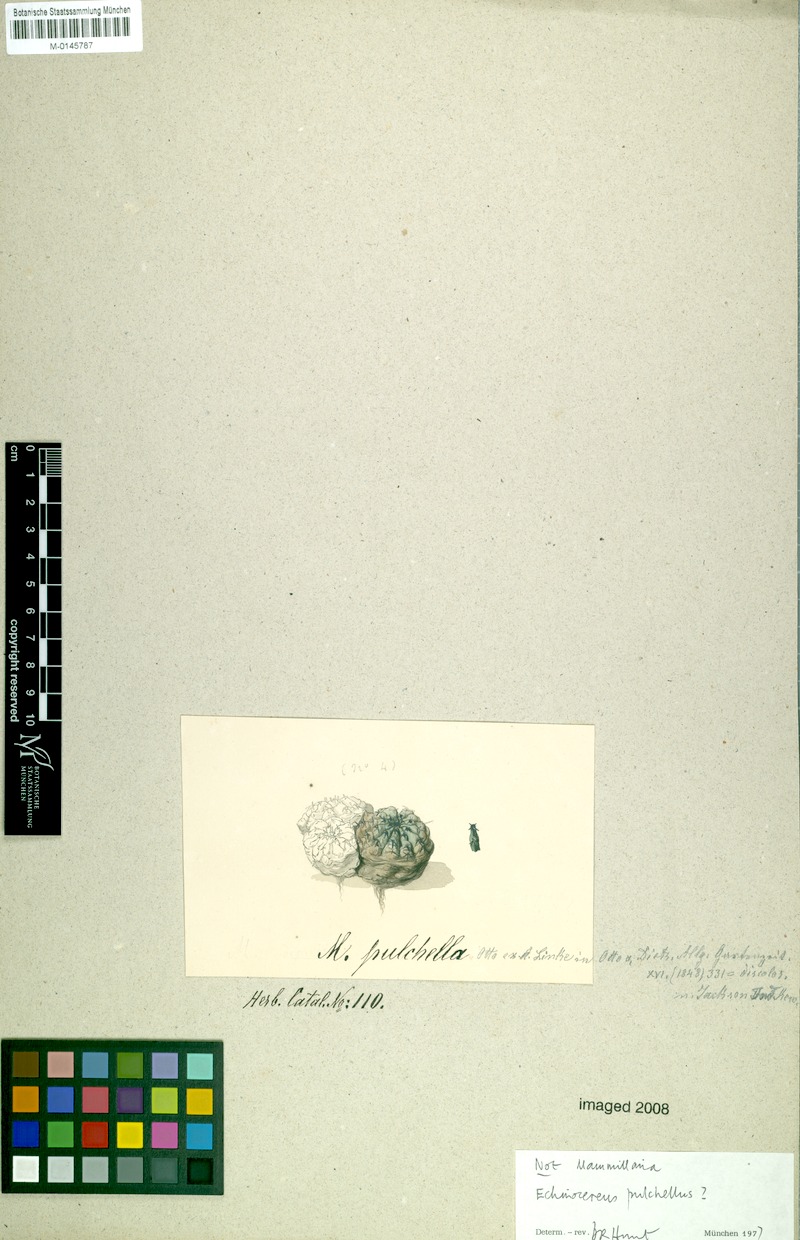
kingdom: Plantae
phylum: Tracheophyta
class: Magnoliopsida
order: Caryophyllales
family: Cactaceae
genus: Echinocereus
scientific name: Echinocereus pulchellus
